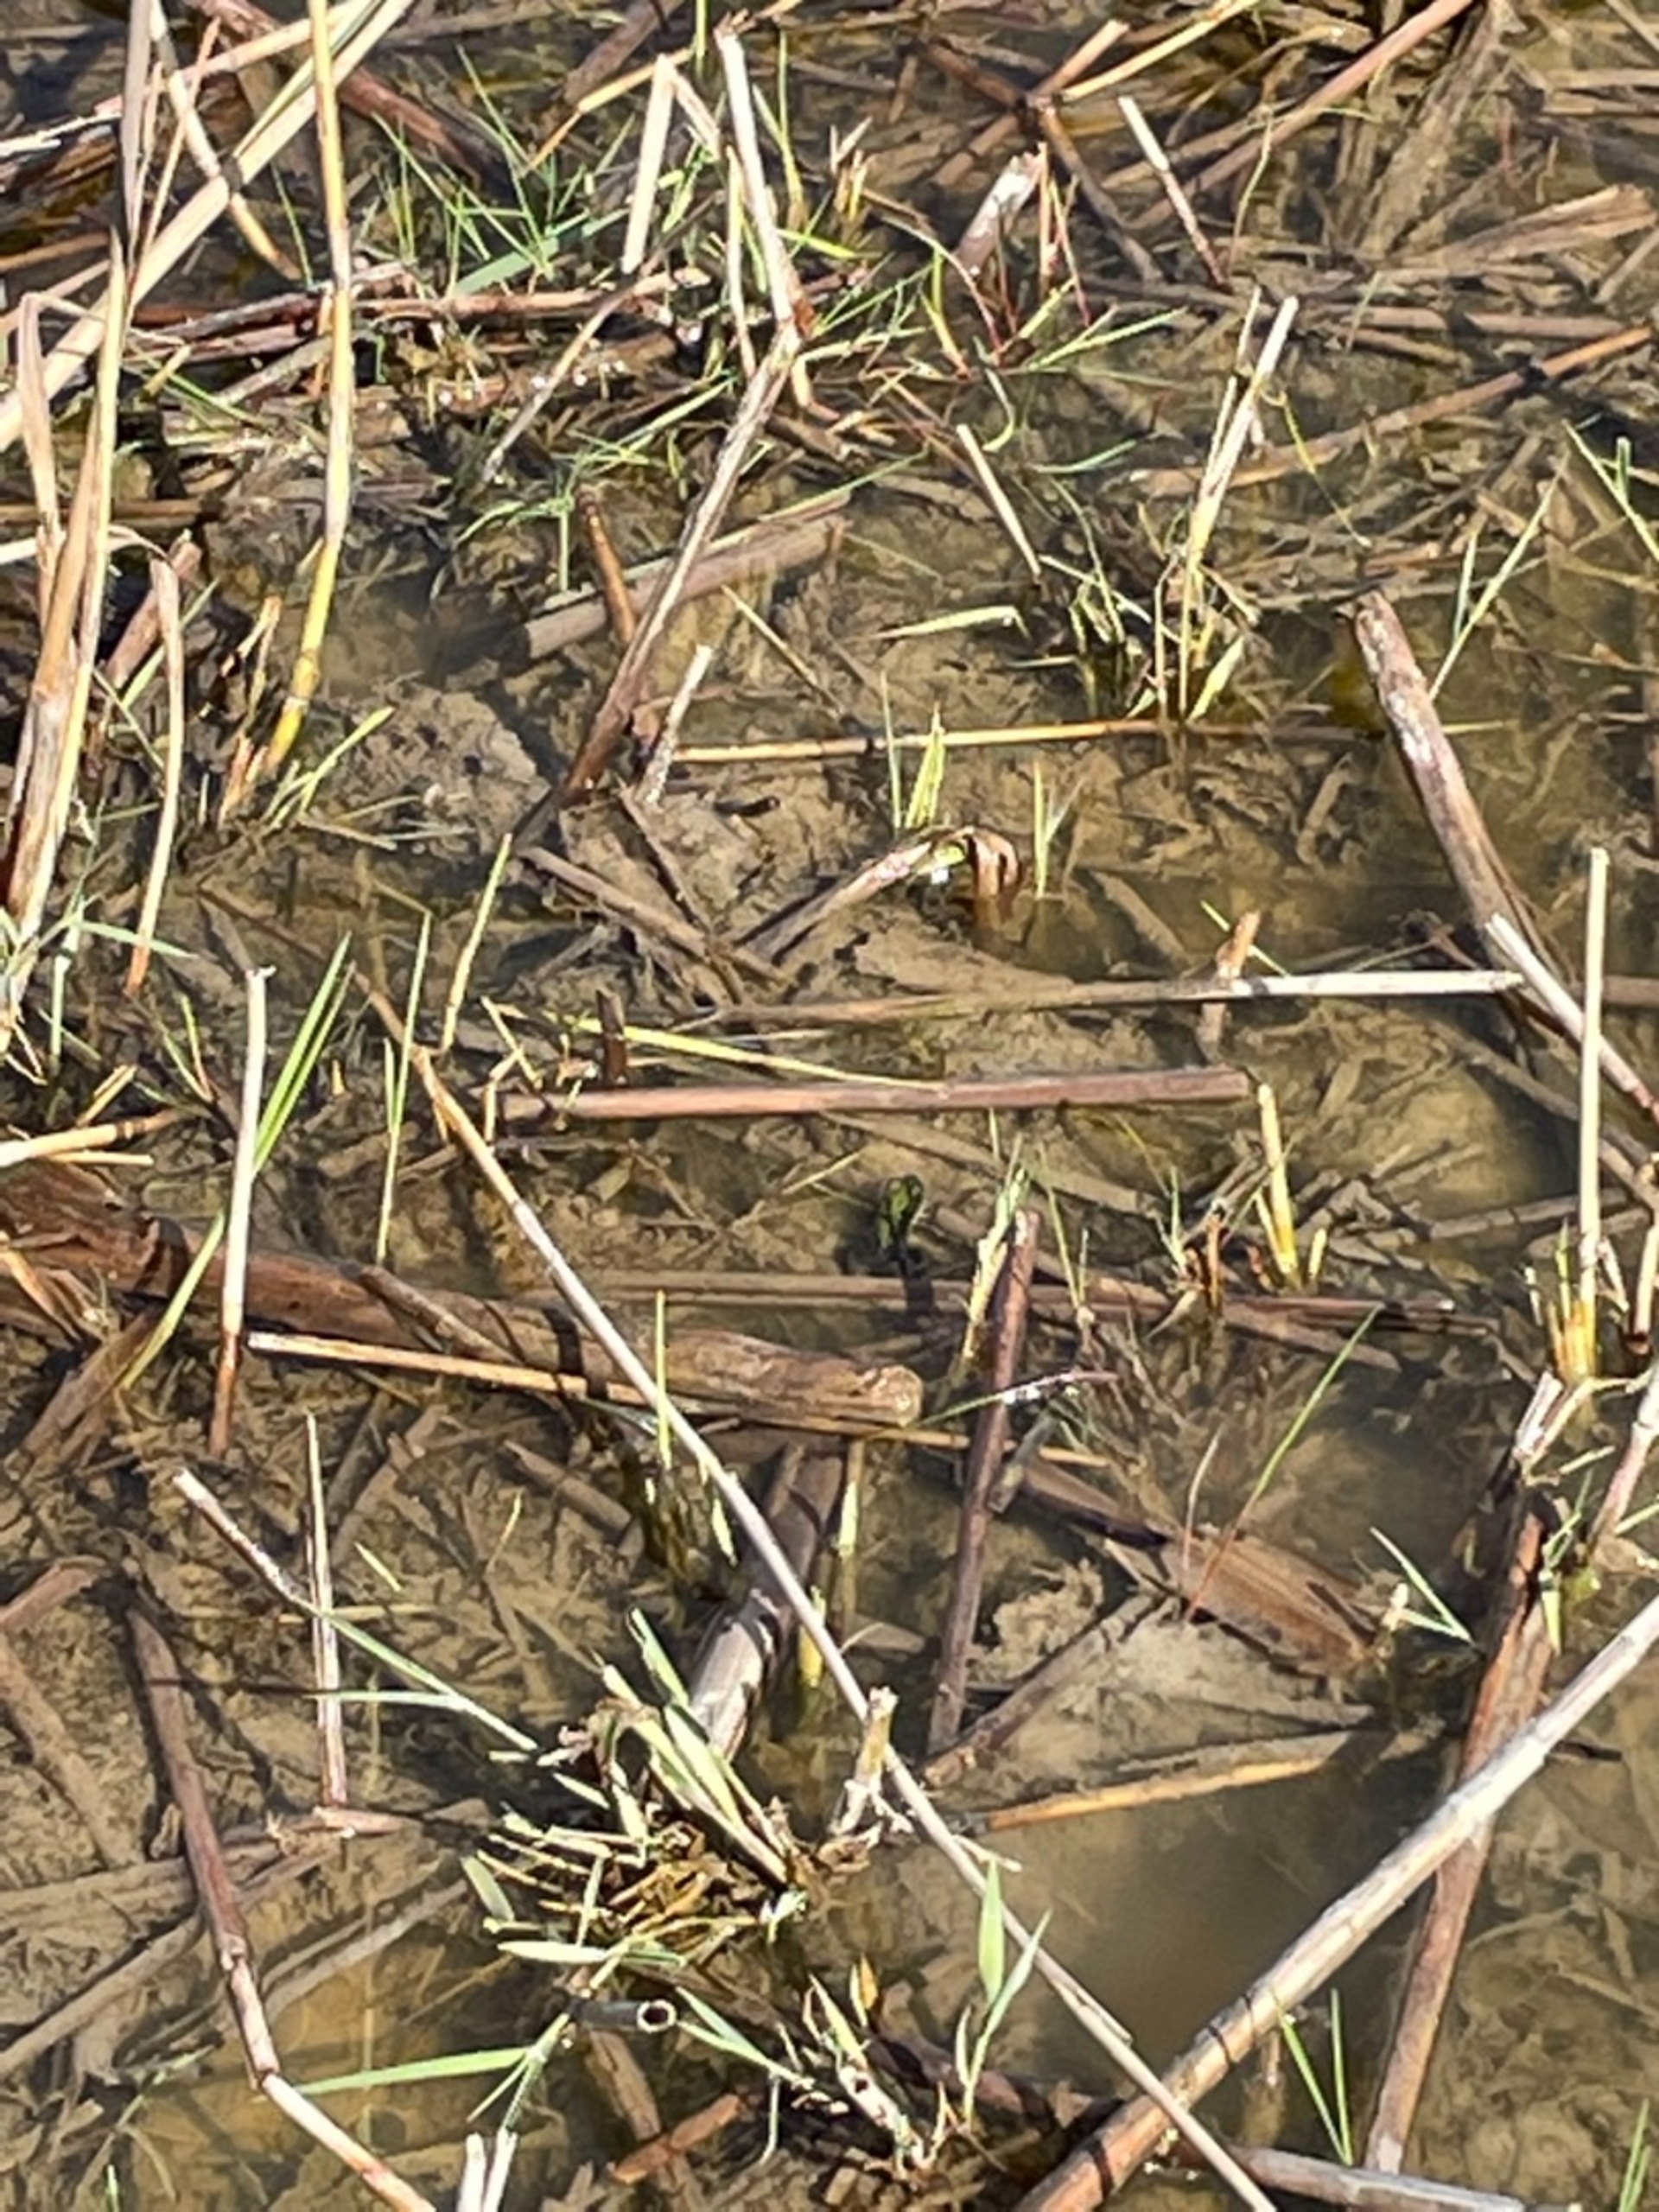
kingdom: Animalia
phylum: Chordata
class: Amphibia
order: Anura
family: Ranidae
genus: Pelophylax
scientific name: Pelophylax lessonae
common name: Grøn frø
